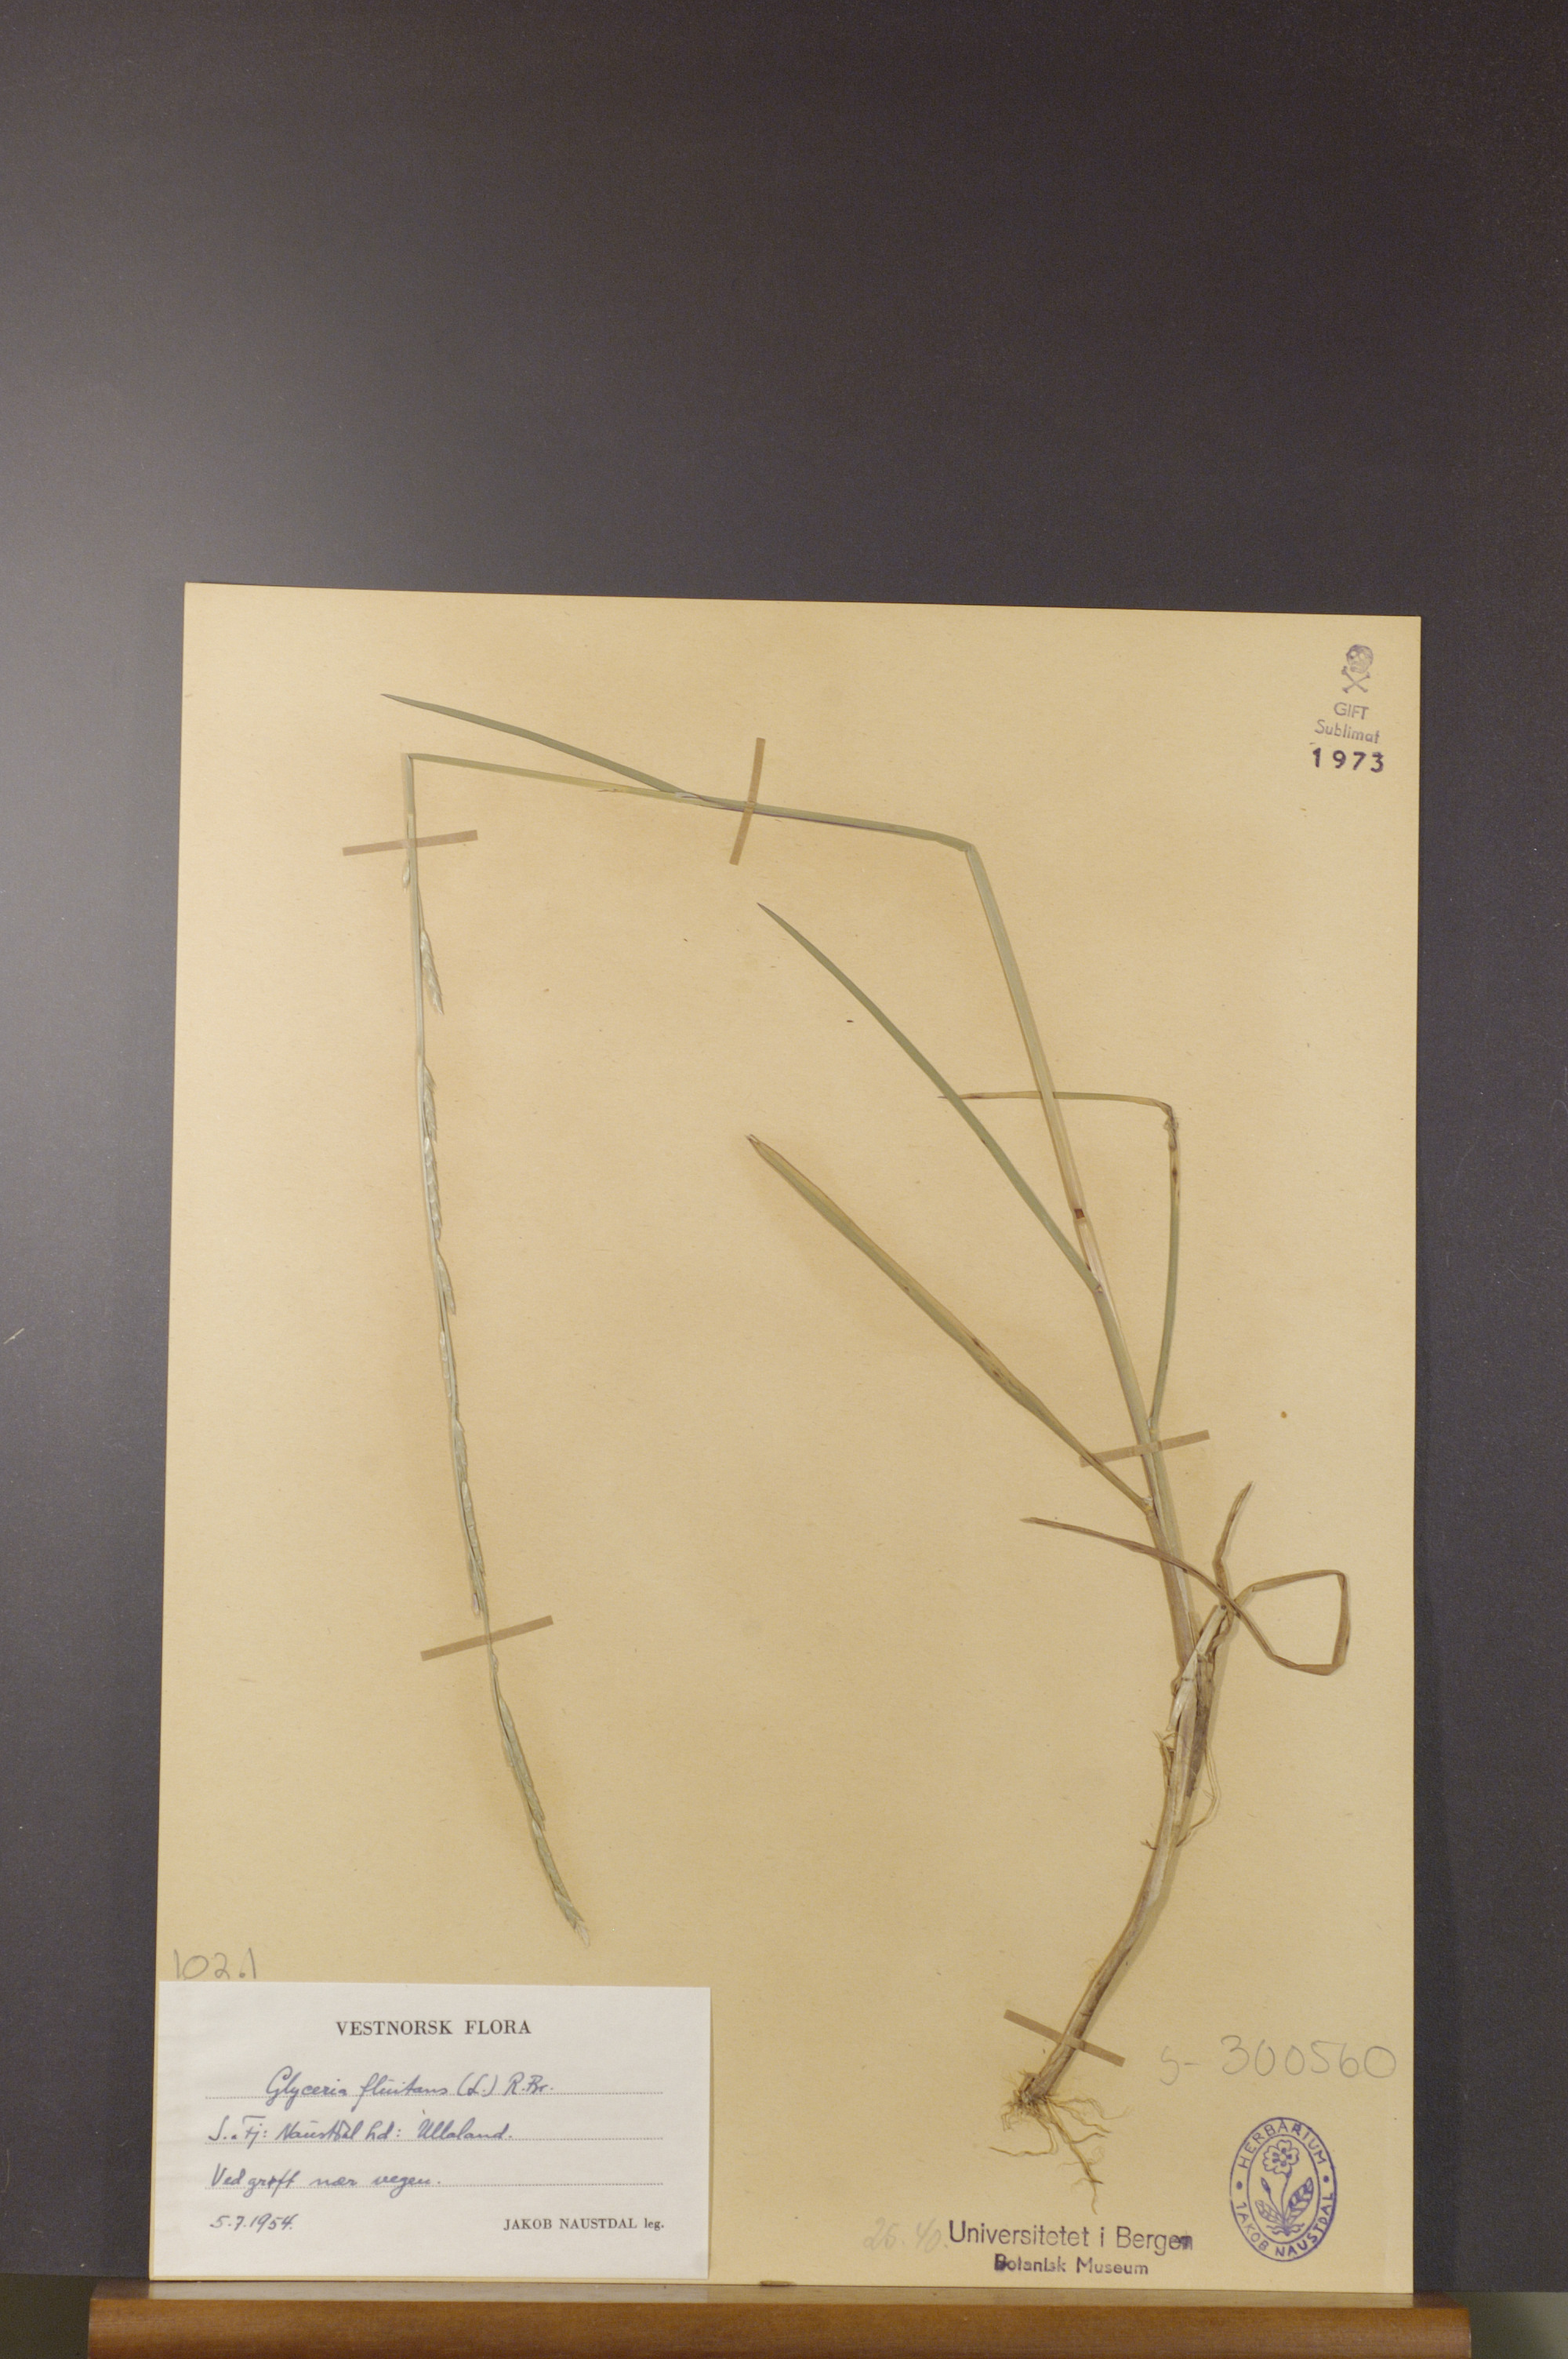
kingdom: Plantae
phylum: Tracheophyta
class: Liliopsida
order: Poales
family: Poaceae
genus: Glyceria
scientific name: Glyceria fluitans
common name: Floating sweet-grass
